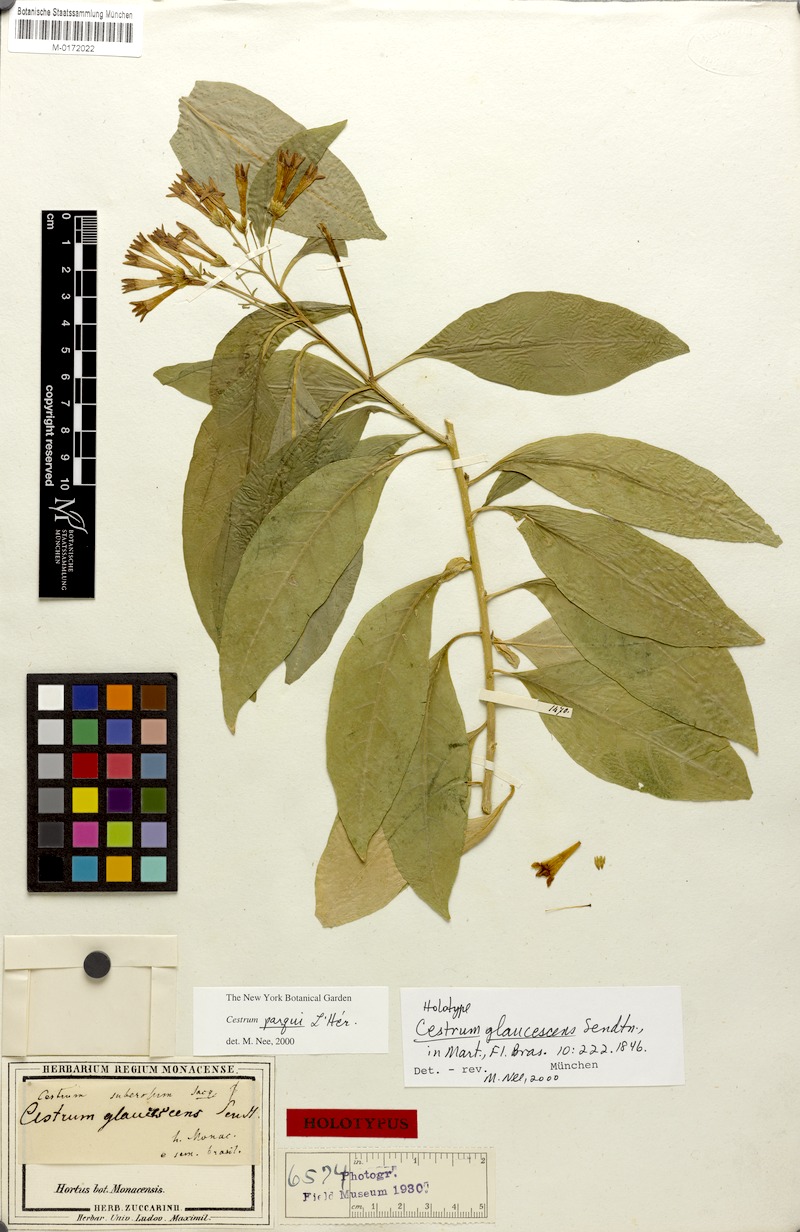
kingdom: Plantae
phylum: Tracheophyta
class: Magnoliopsida
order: Solanales
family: Solanaceae
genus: Cestrum
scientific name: Cestrum thyrsoideum
